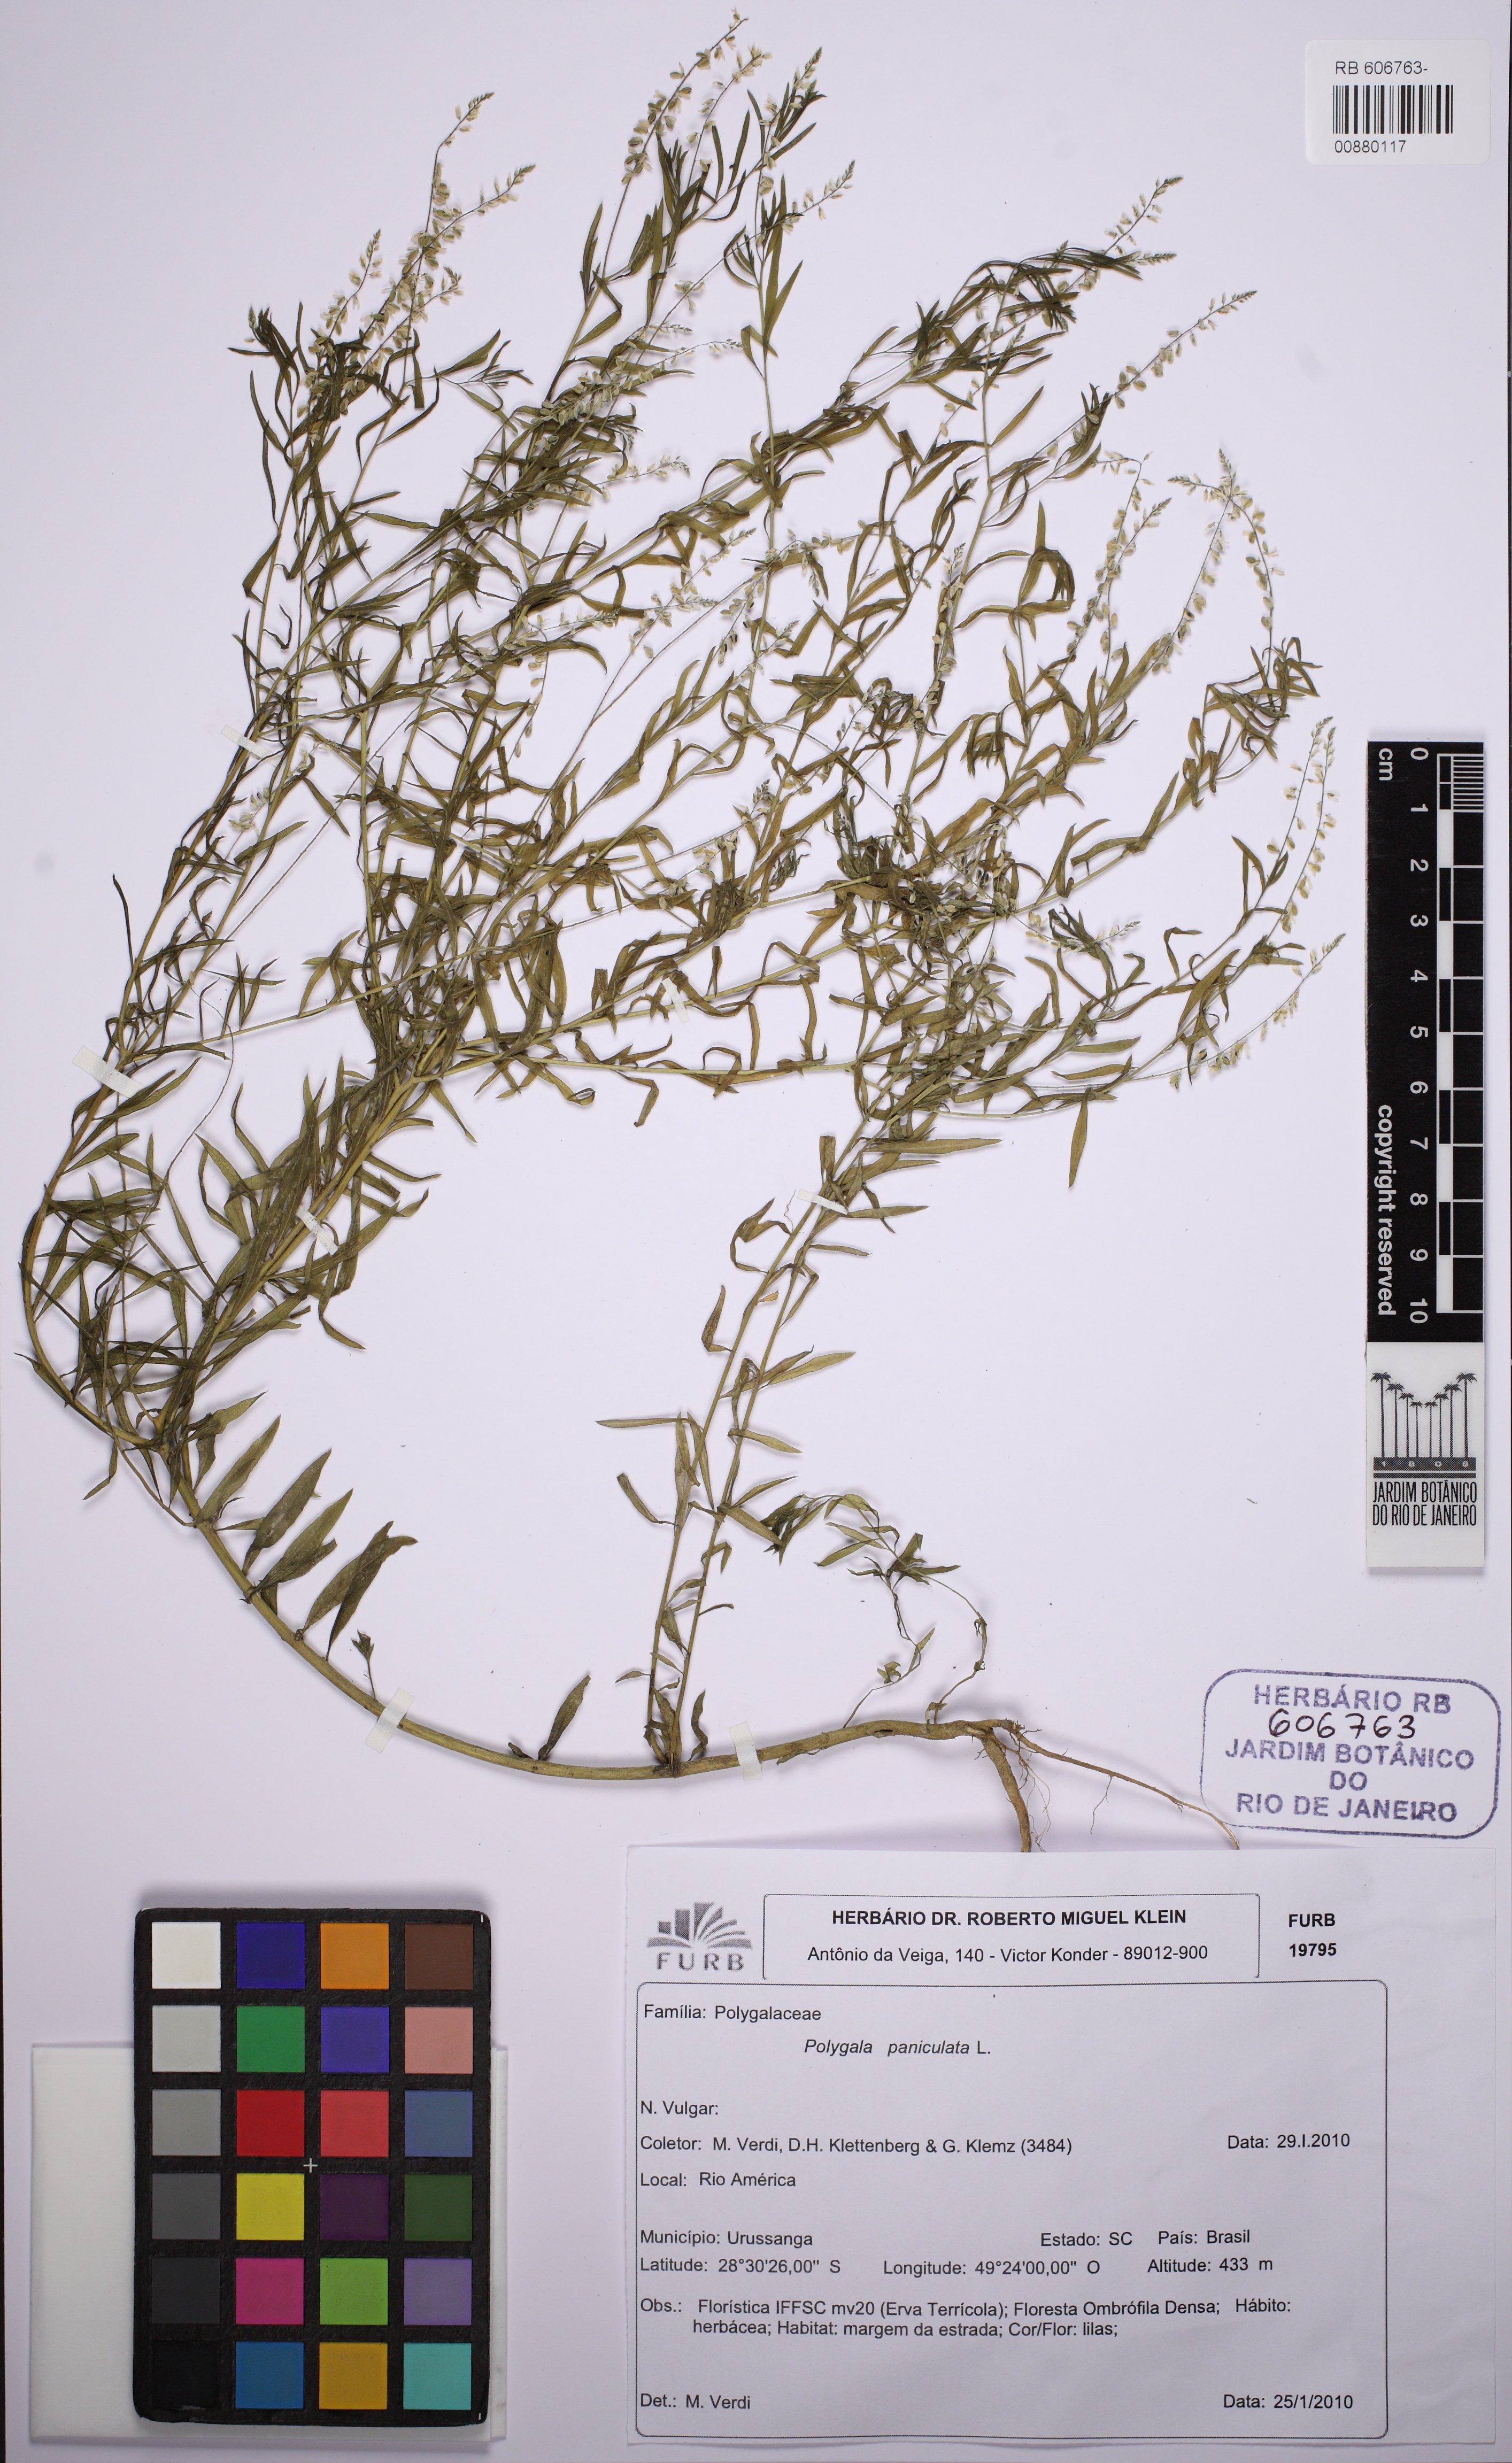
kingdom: Plantae
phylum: Tracheophyta
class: Magnoliopsida
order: Fabales
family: Polygalaceae
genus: Polygala
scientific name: Polygala paniculata
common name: Orosne
